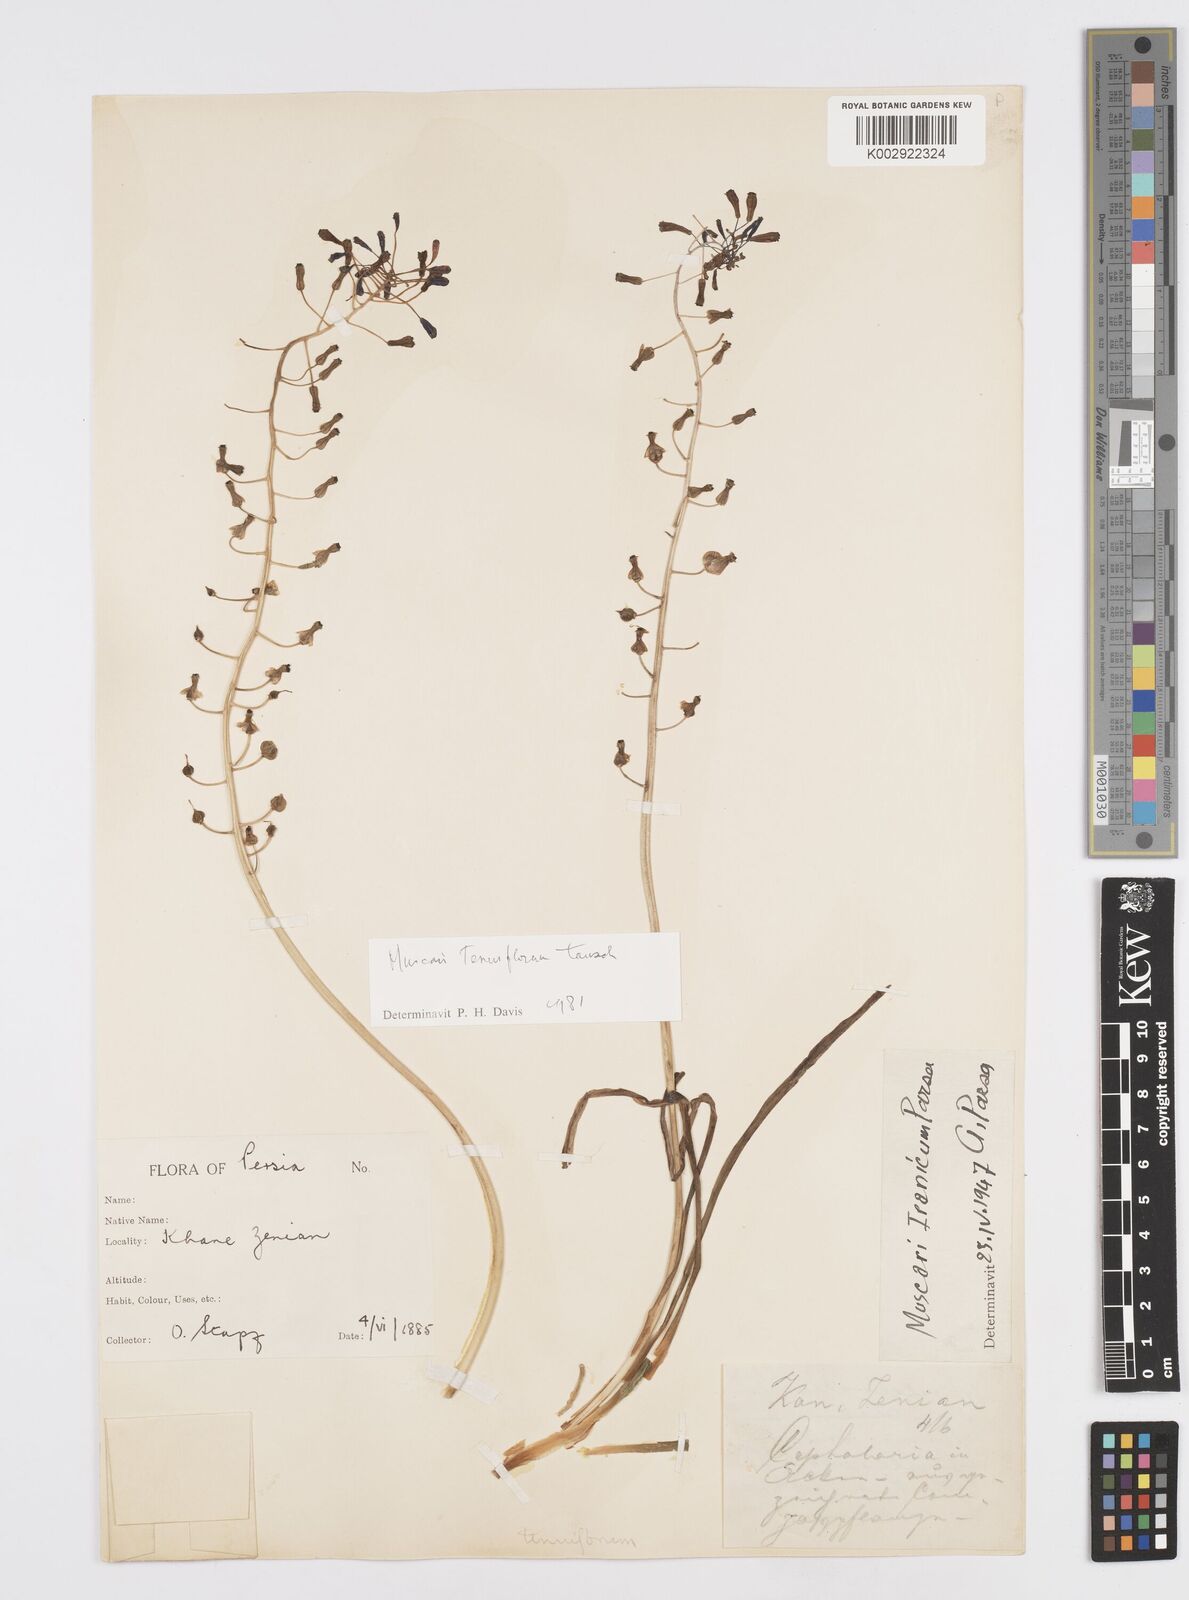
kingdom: Animalia
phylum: Mollusca
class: Cephalopoda
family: Neocomitidae
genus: Leopoldia
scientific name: Leopoldia
